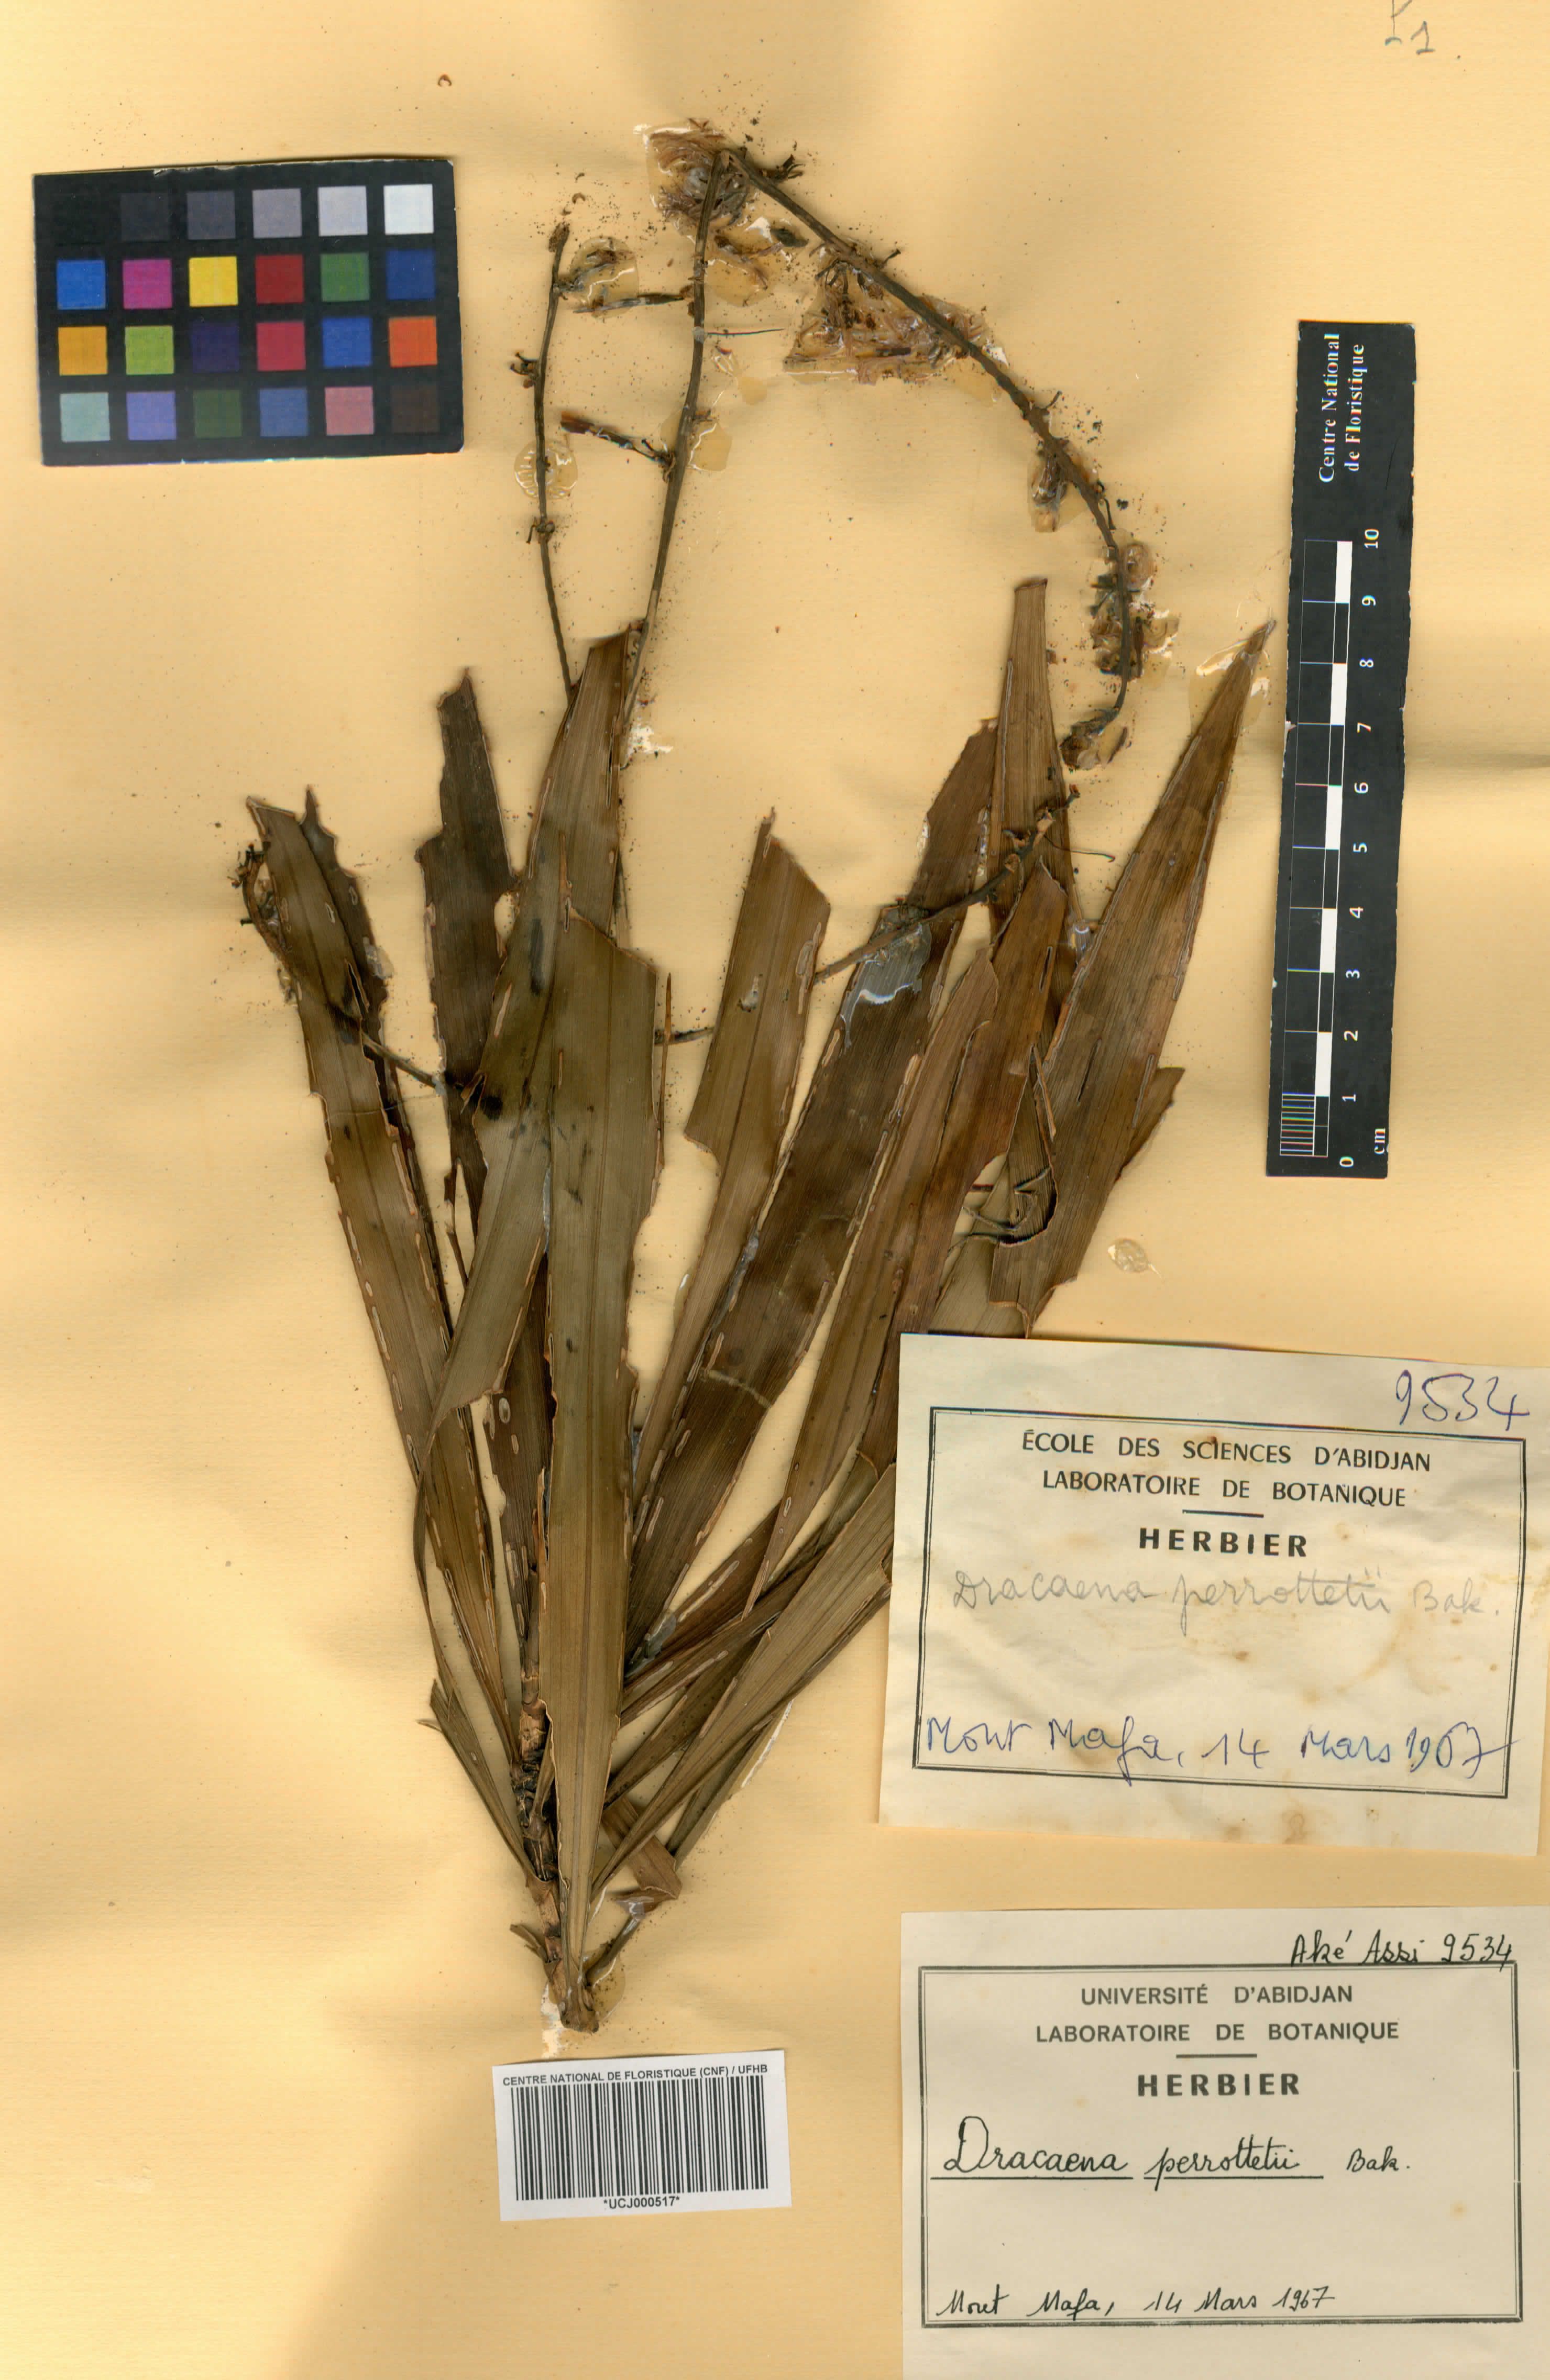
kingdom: Plantae
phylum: Tracheophyta
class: Liliopsida
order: Asparagales
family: Asparagaceae
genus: Dracaena
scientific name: Dracaena perrottetii
